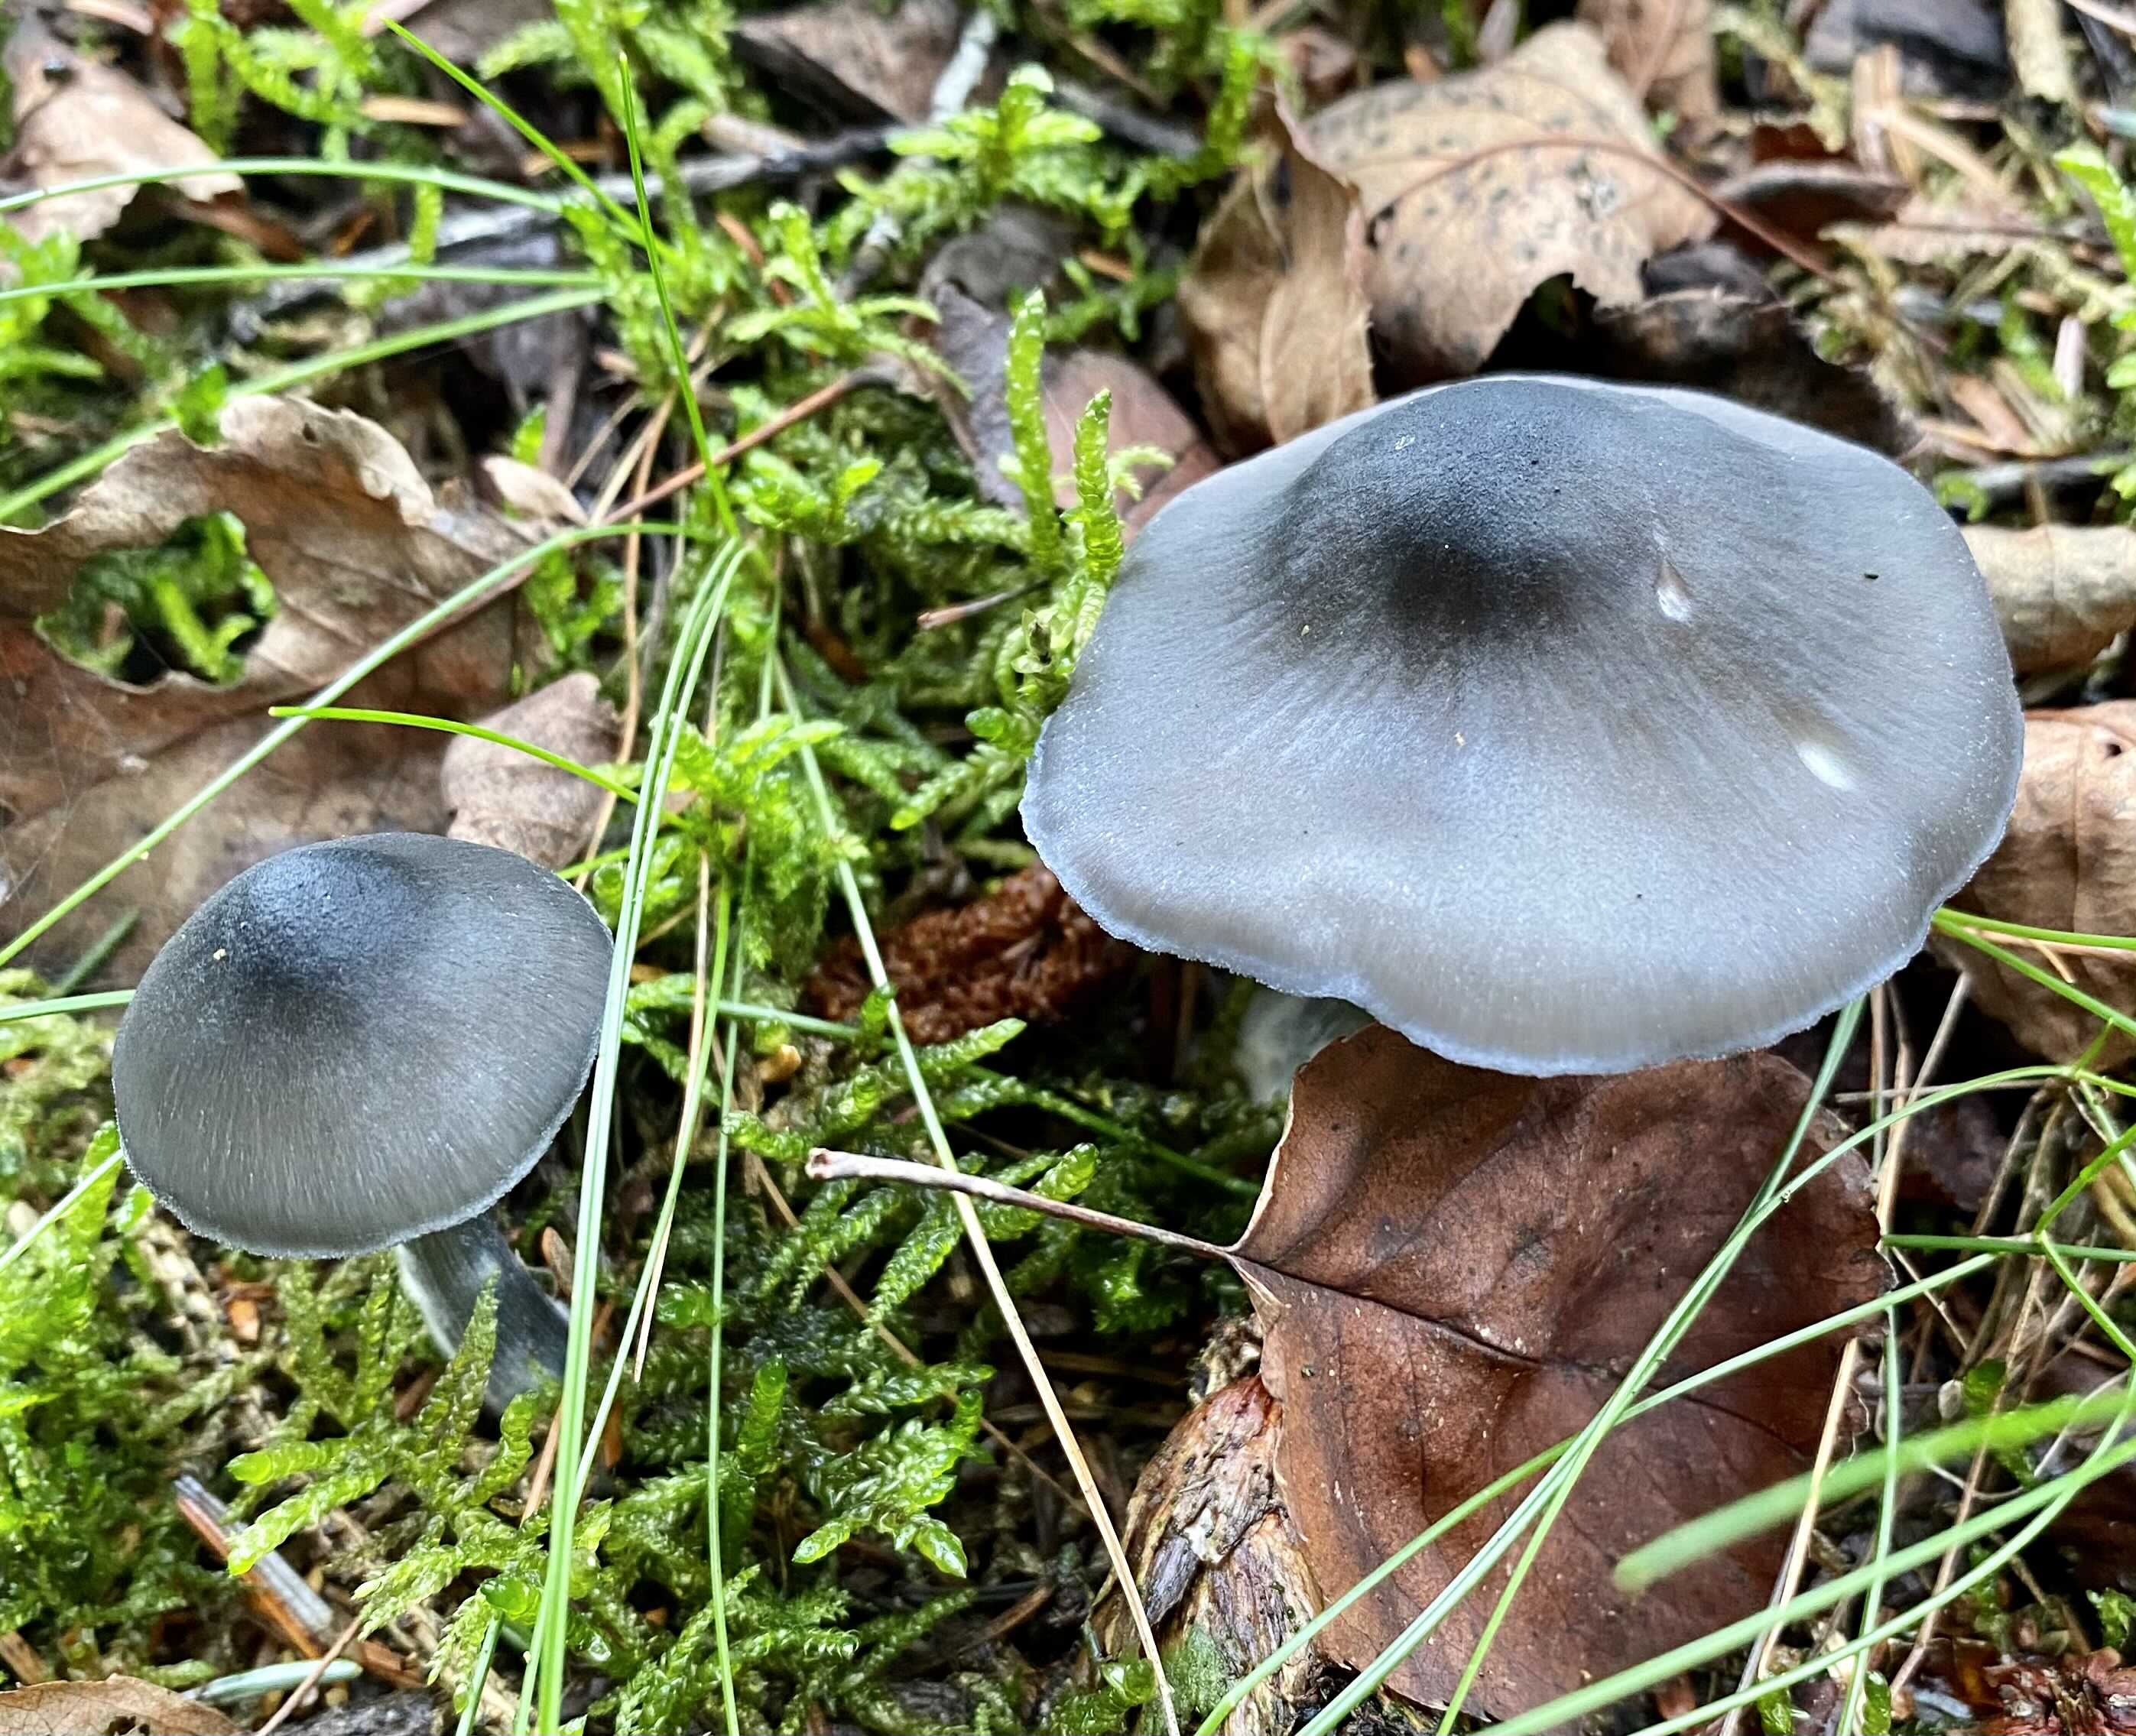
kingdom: Fungi
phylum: Basidiomycota
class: Agaricomycetes
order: Agaricales
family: Entolomataceae
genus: Entocybe
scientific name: Entocybe nitida
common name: stålblå rødblad
